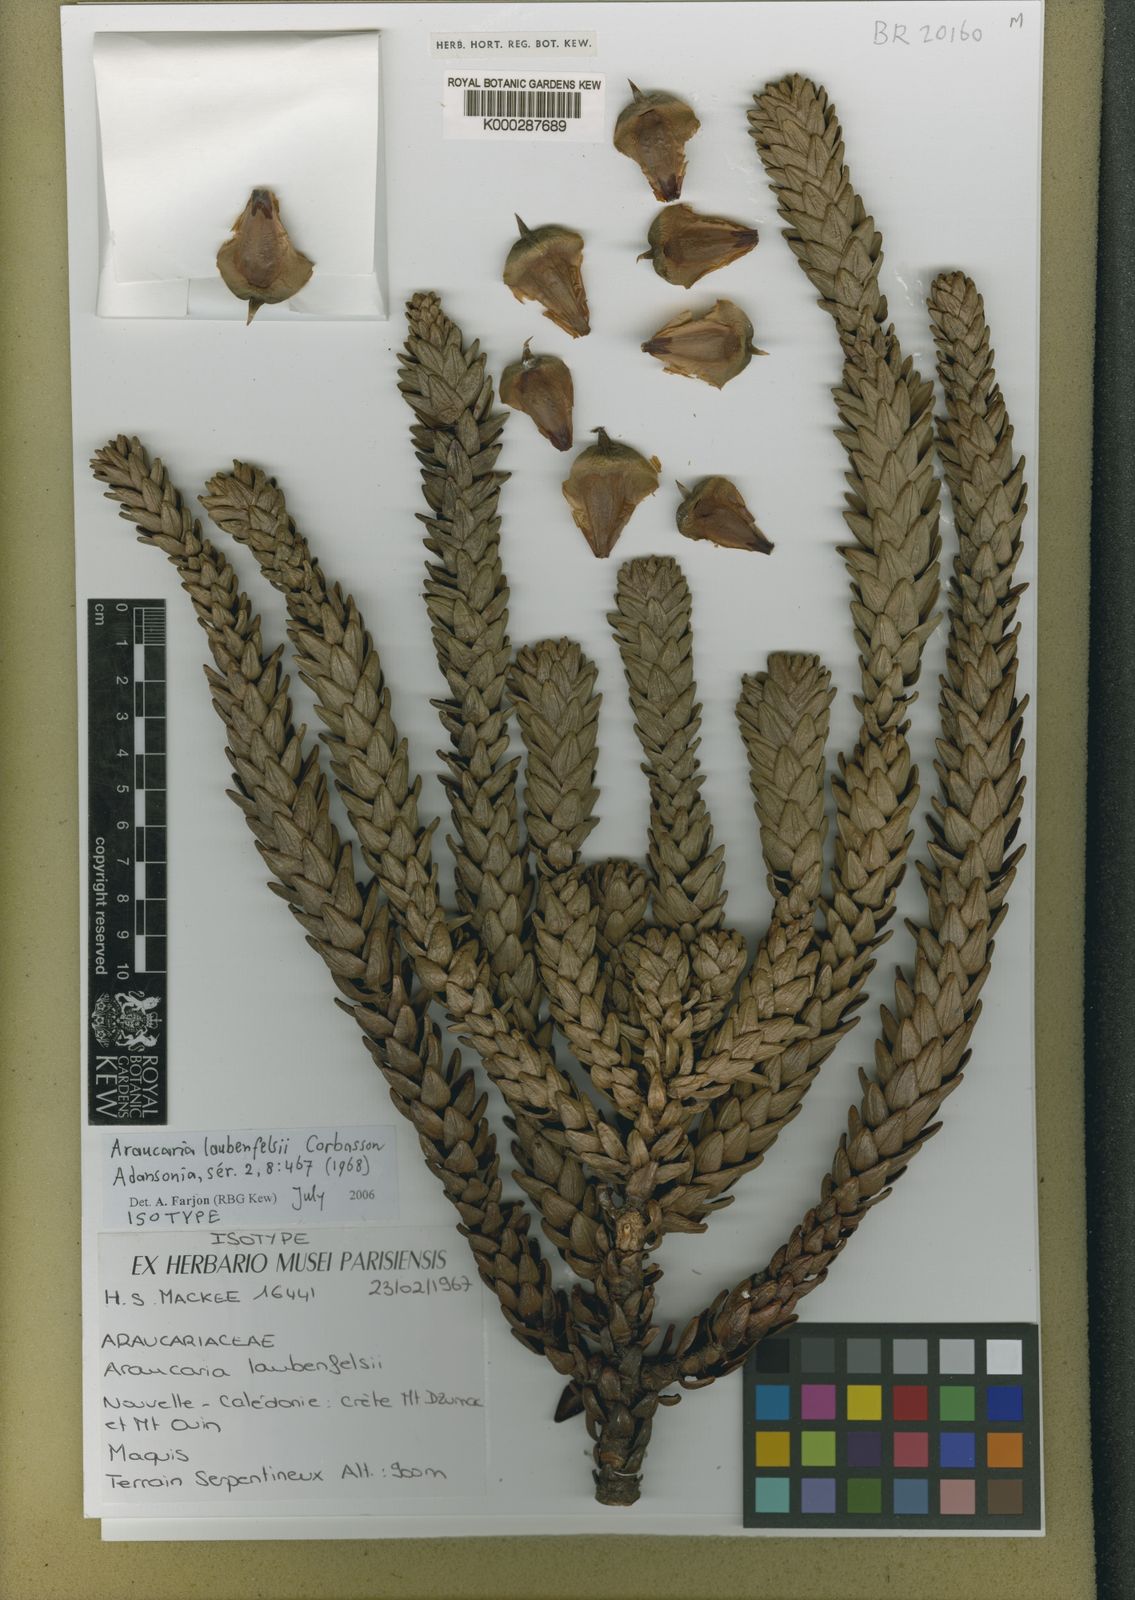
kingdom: Plantae
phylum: Tracheophyta
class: Pinopsida
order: Pinales
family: Araucariaceae
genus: Araucaria
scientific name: Araucaria laubenfelsii
